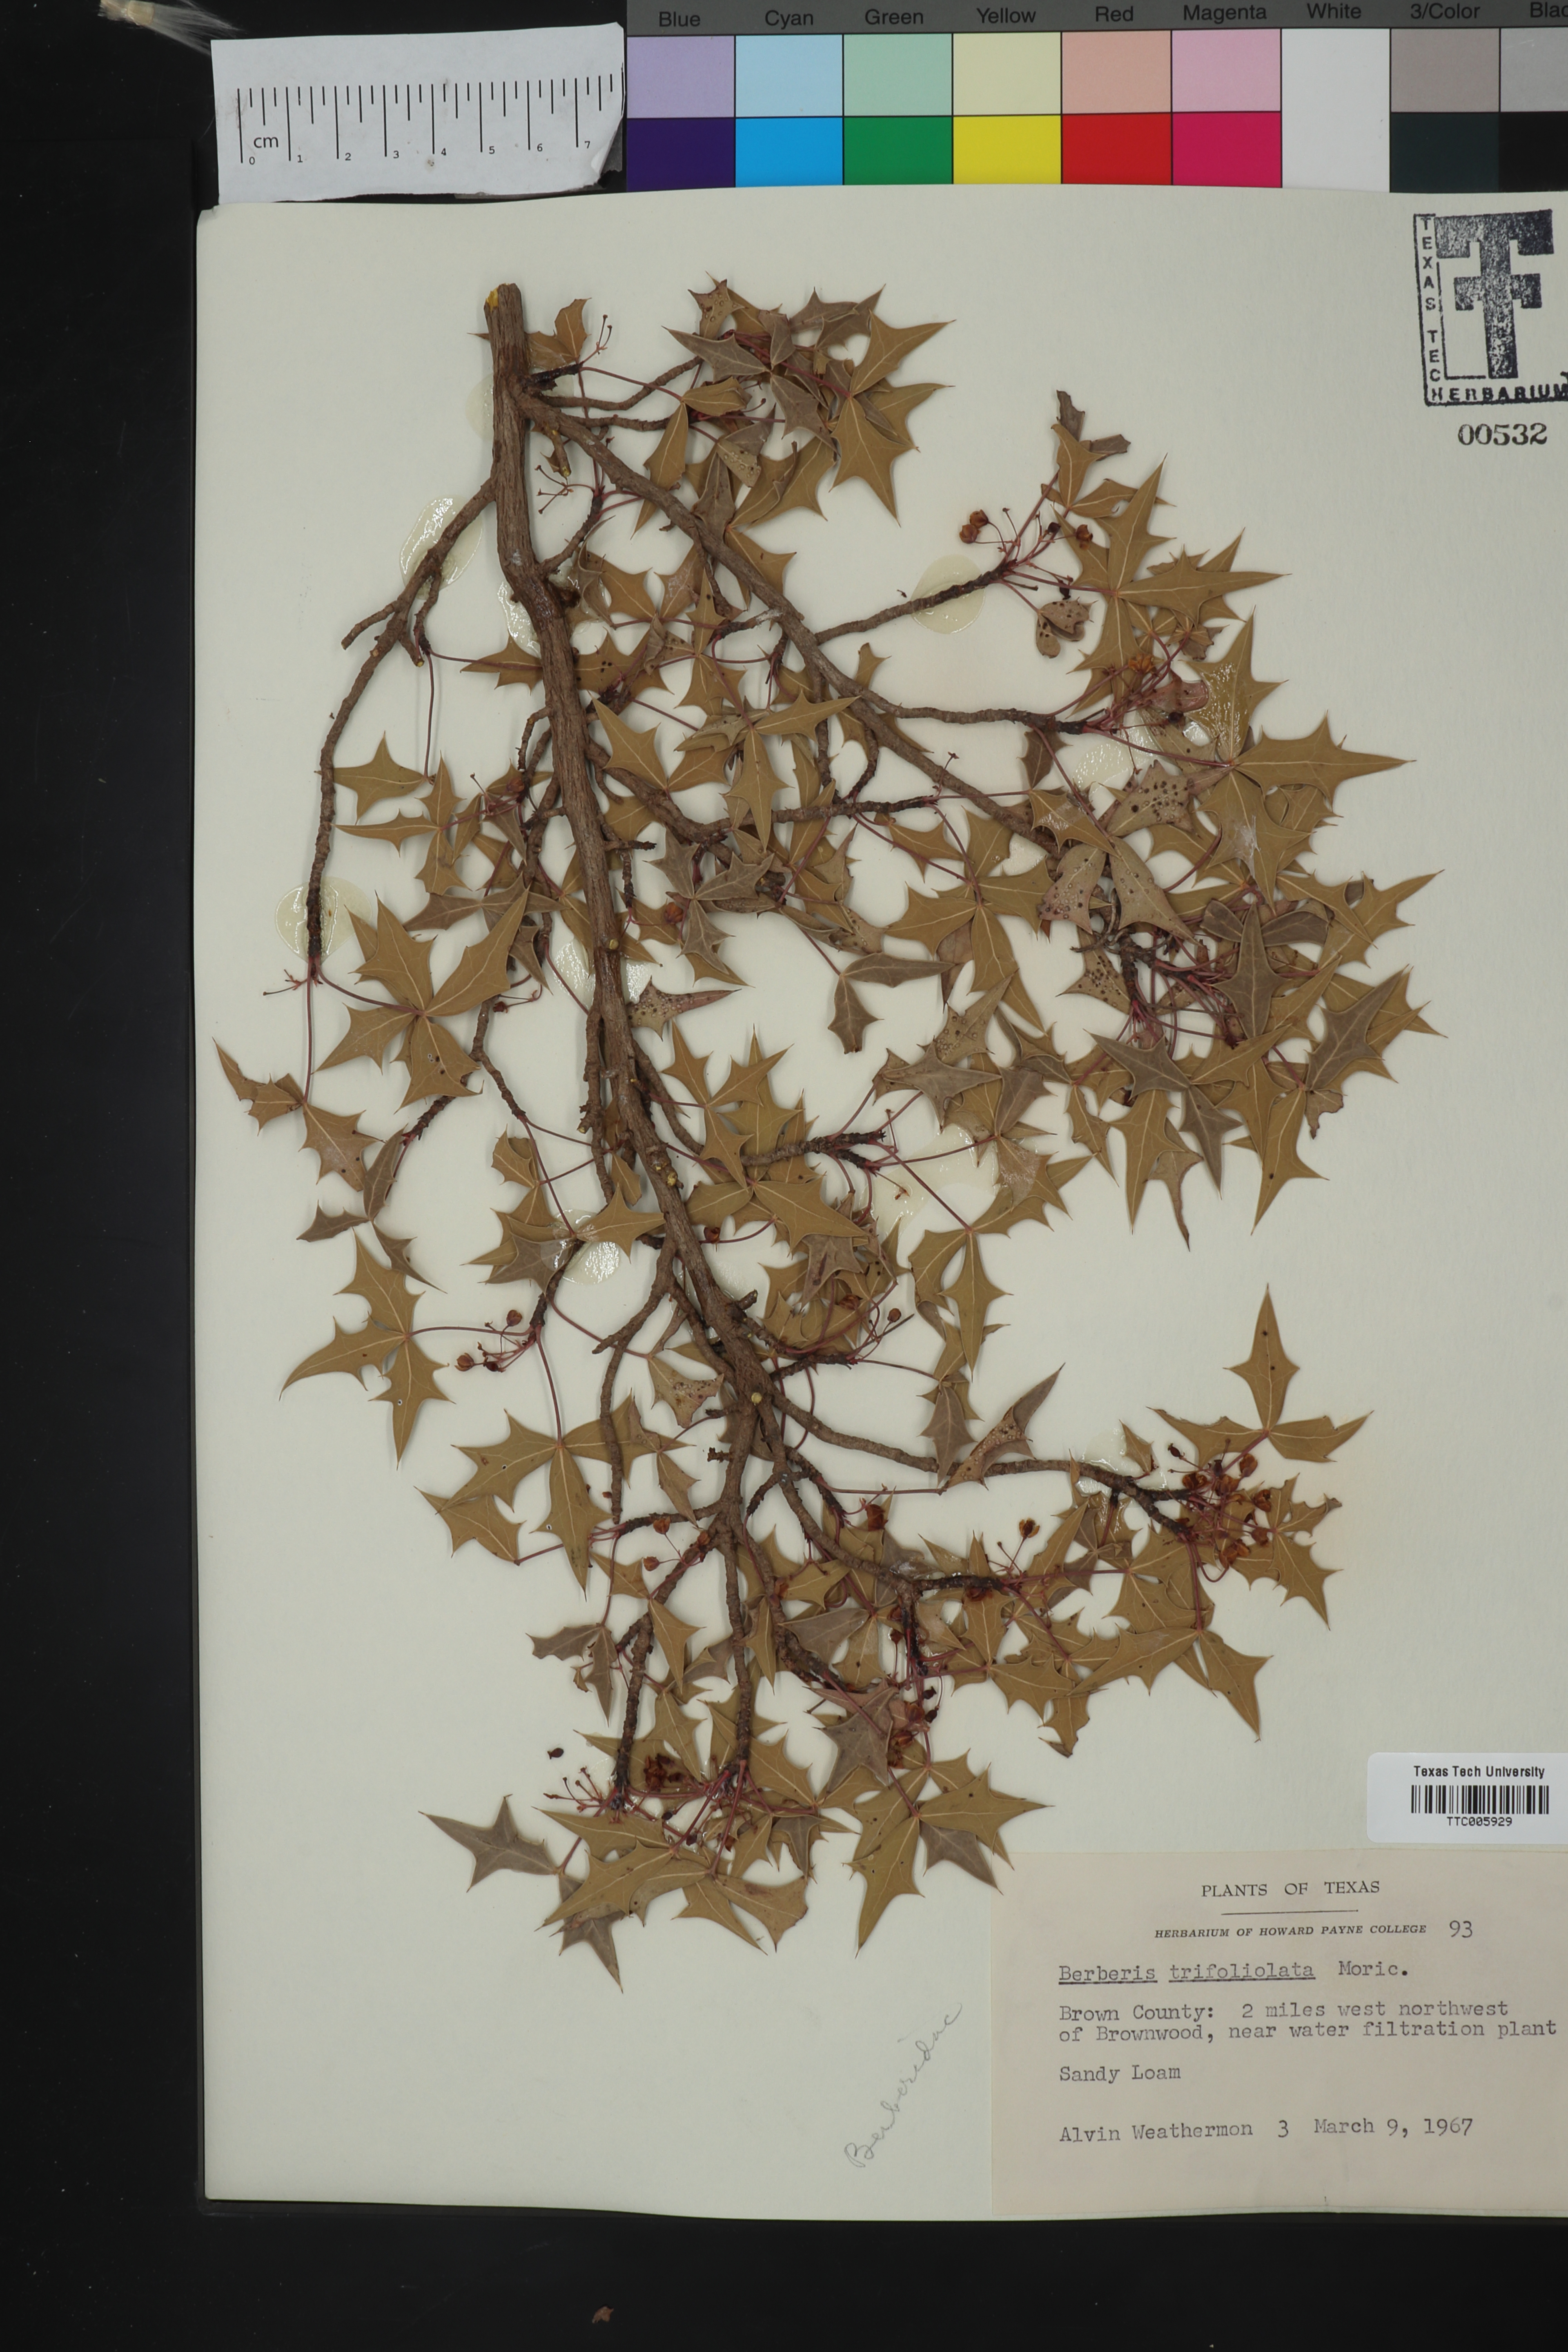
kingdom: Plantae
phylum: Tracheophyta
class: Magnoliopsida
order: Ranunculales
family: Berberidaceae
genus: Alloberberis
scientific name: Alloberberis trifoliolata
